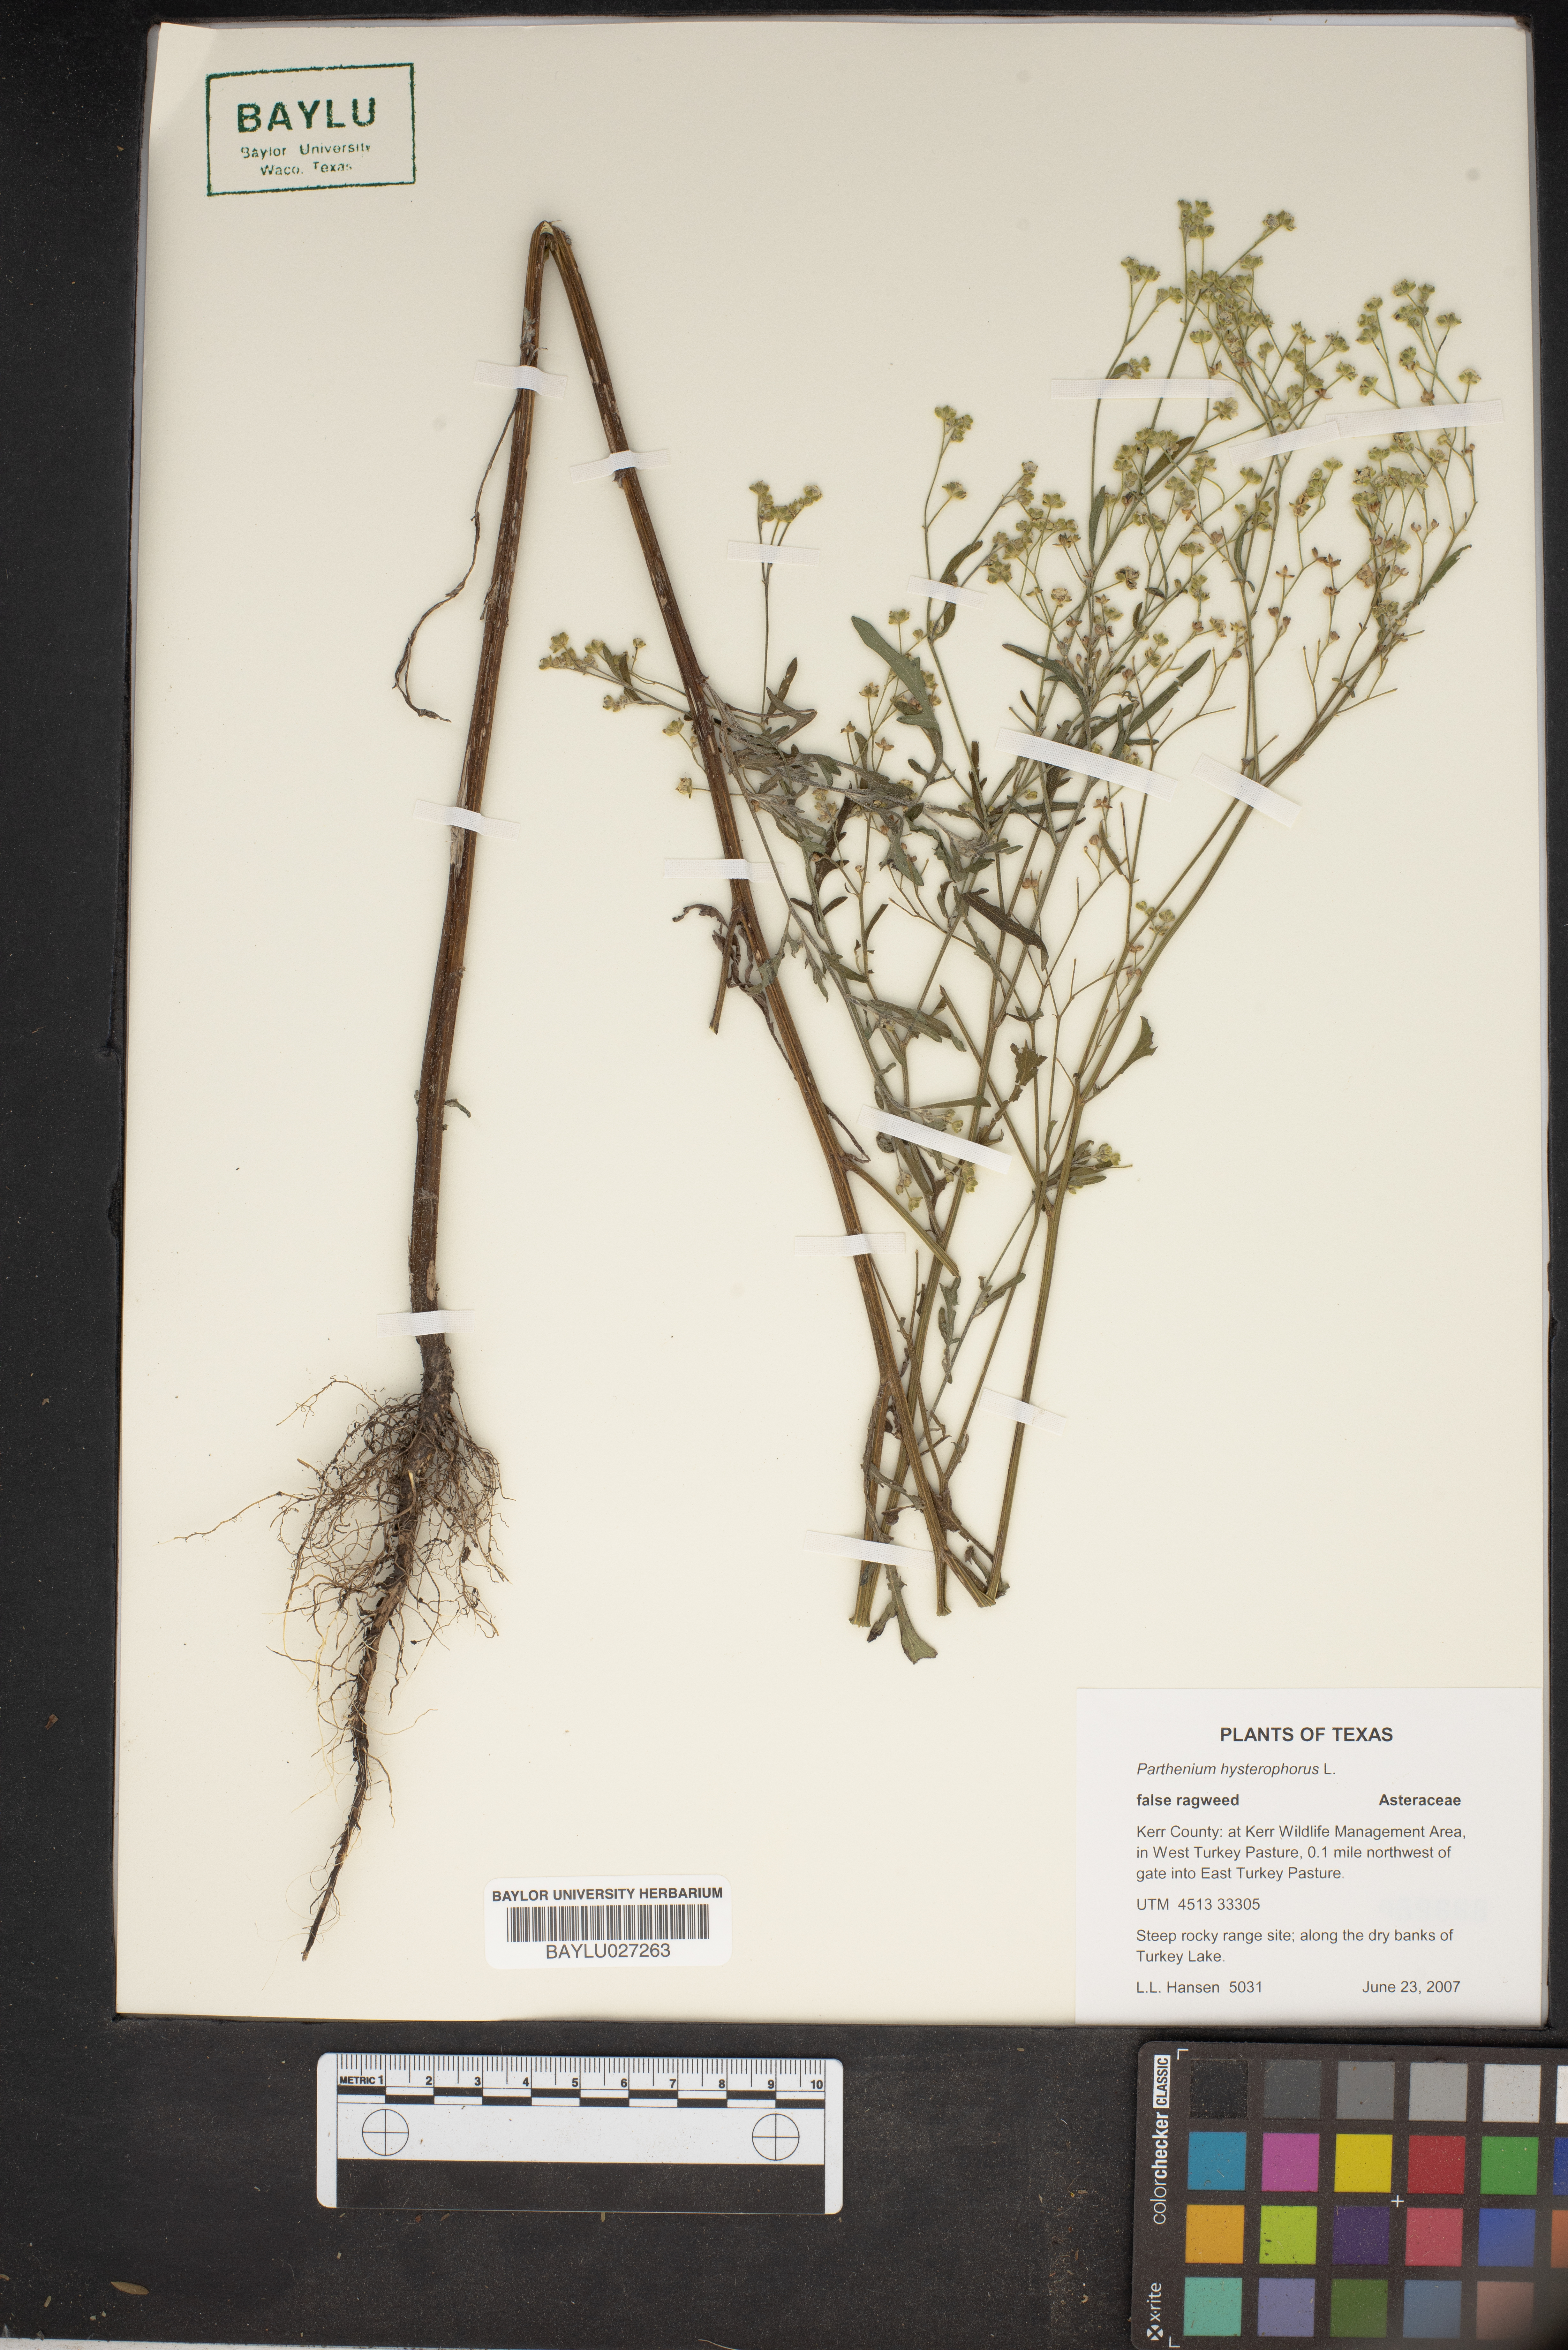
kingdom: Plantae
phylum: Tracheophyta
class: Magnoliopsida
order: Asterales
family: Asteraceae
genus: Parthenium
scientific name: Parthenium hysterophorus
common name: Santa maria feverfew
